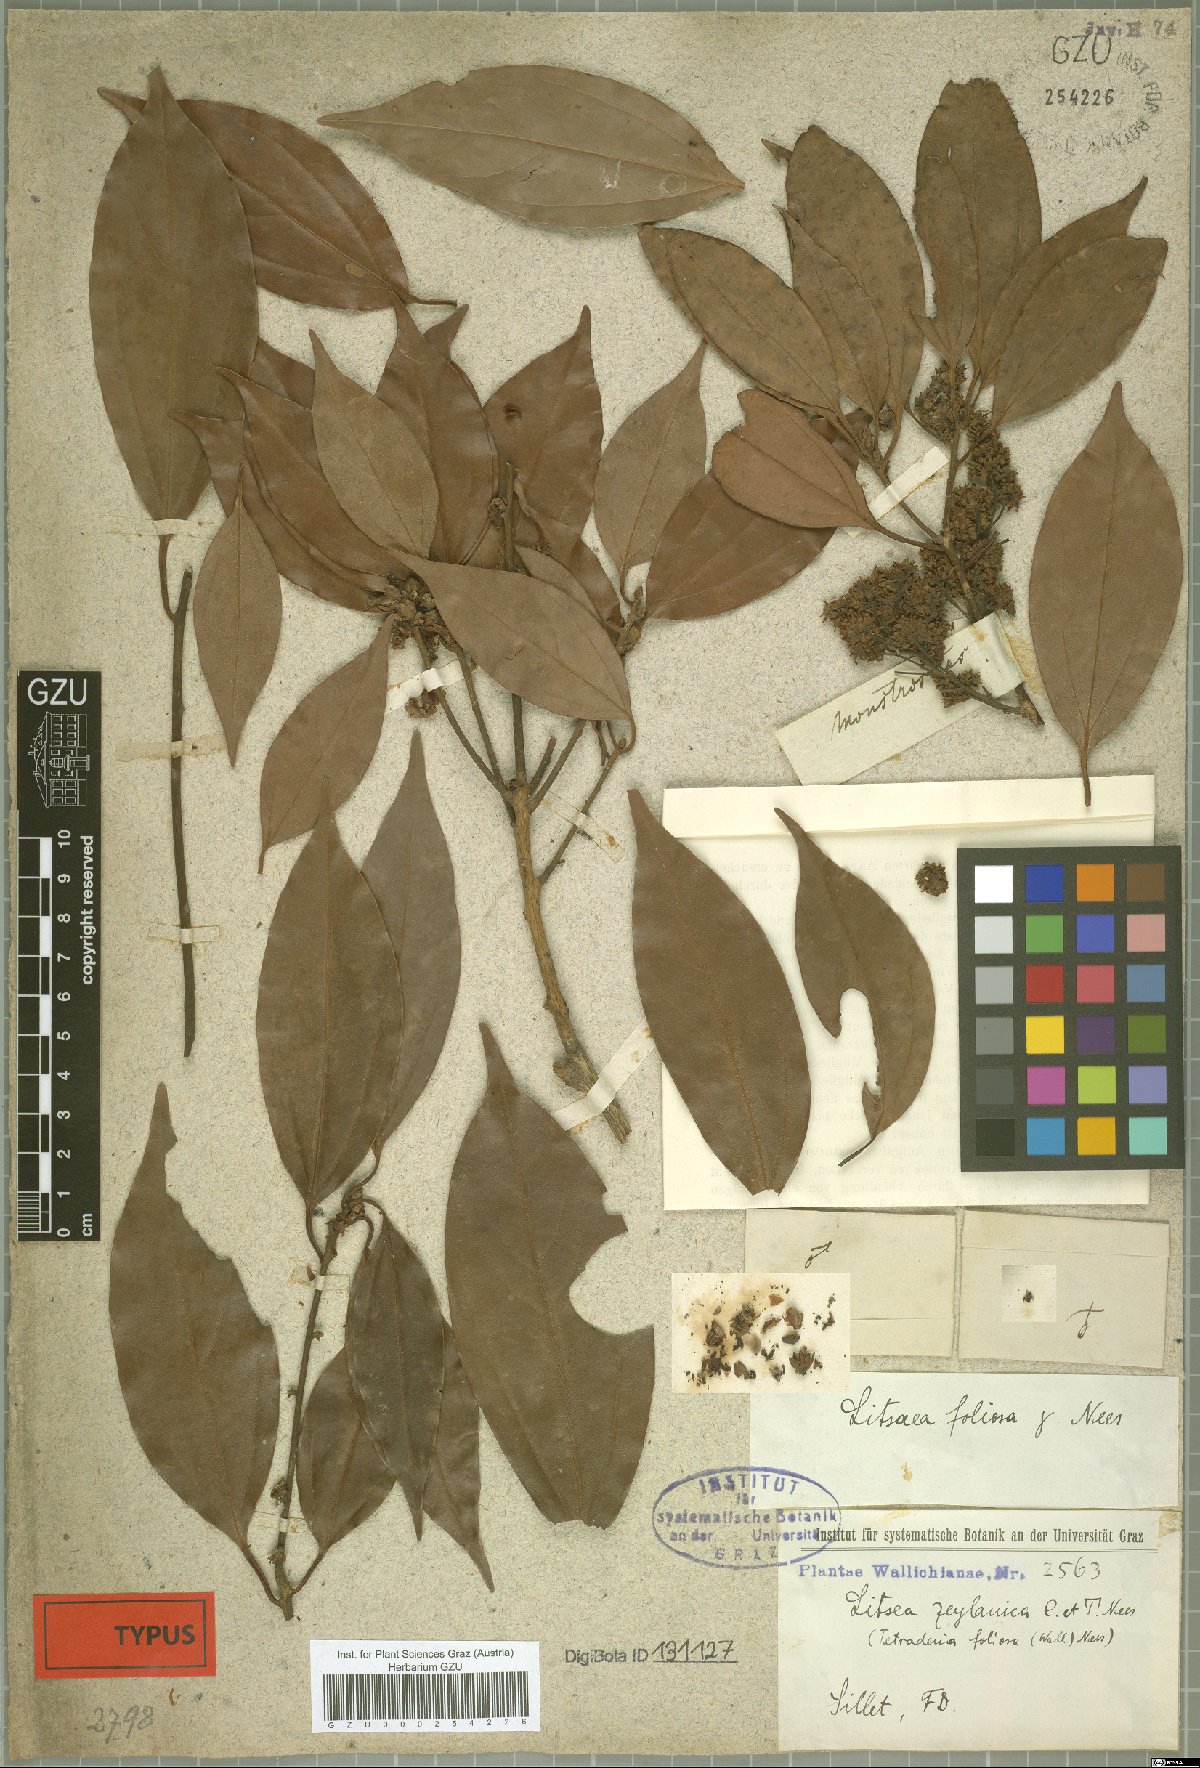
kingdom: Plantae
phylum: Tracheophyta
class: Magnoliopsida
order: Laurales
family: Lauraceae
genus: Neolitsea
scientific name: Neolitsea foliosa
